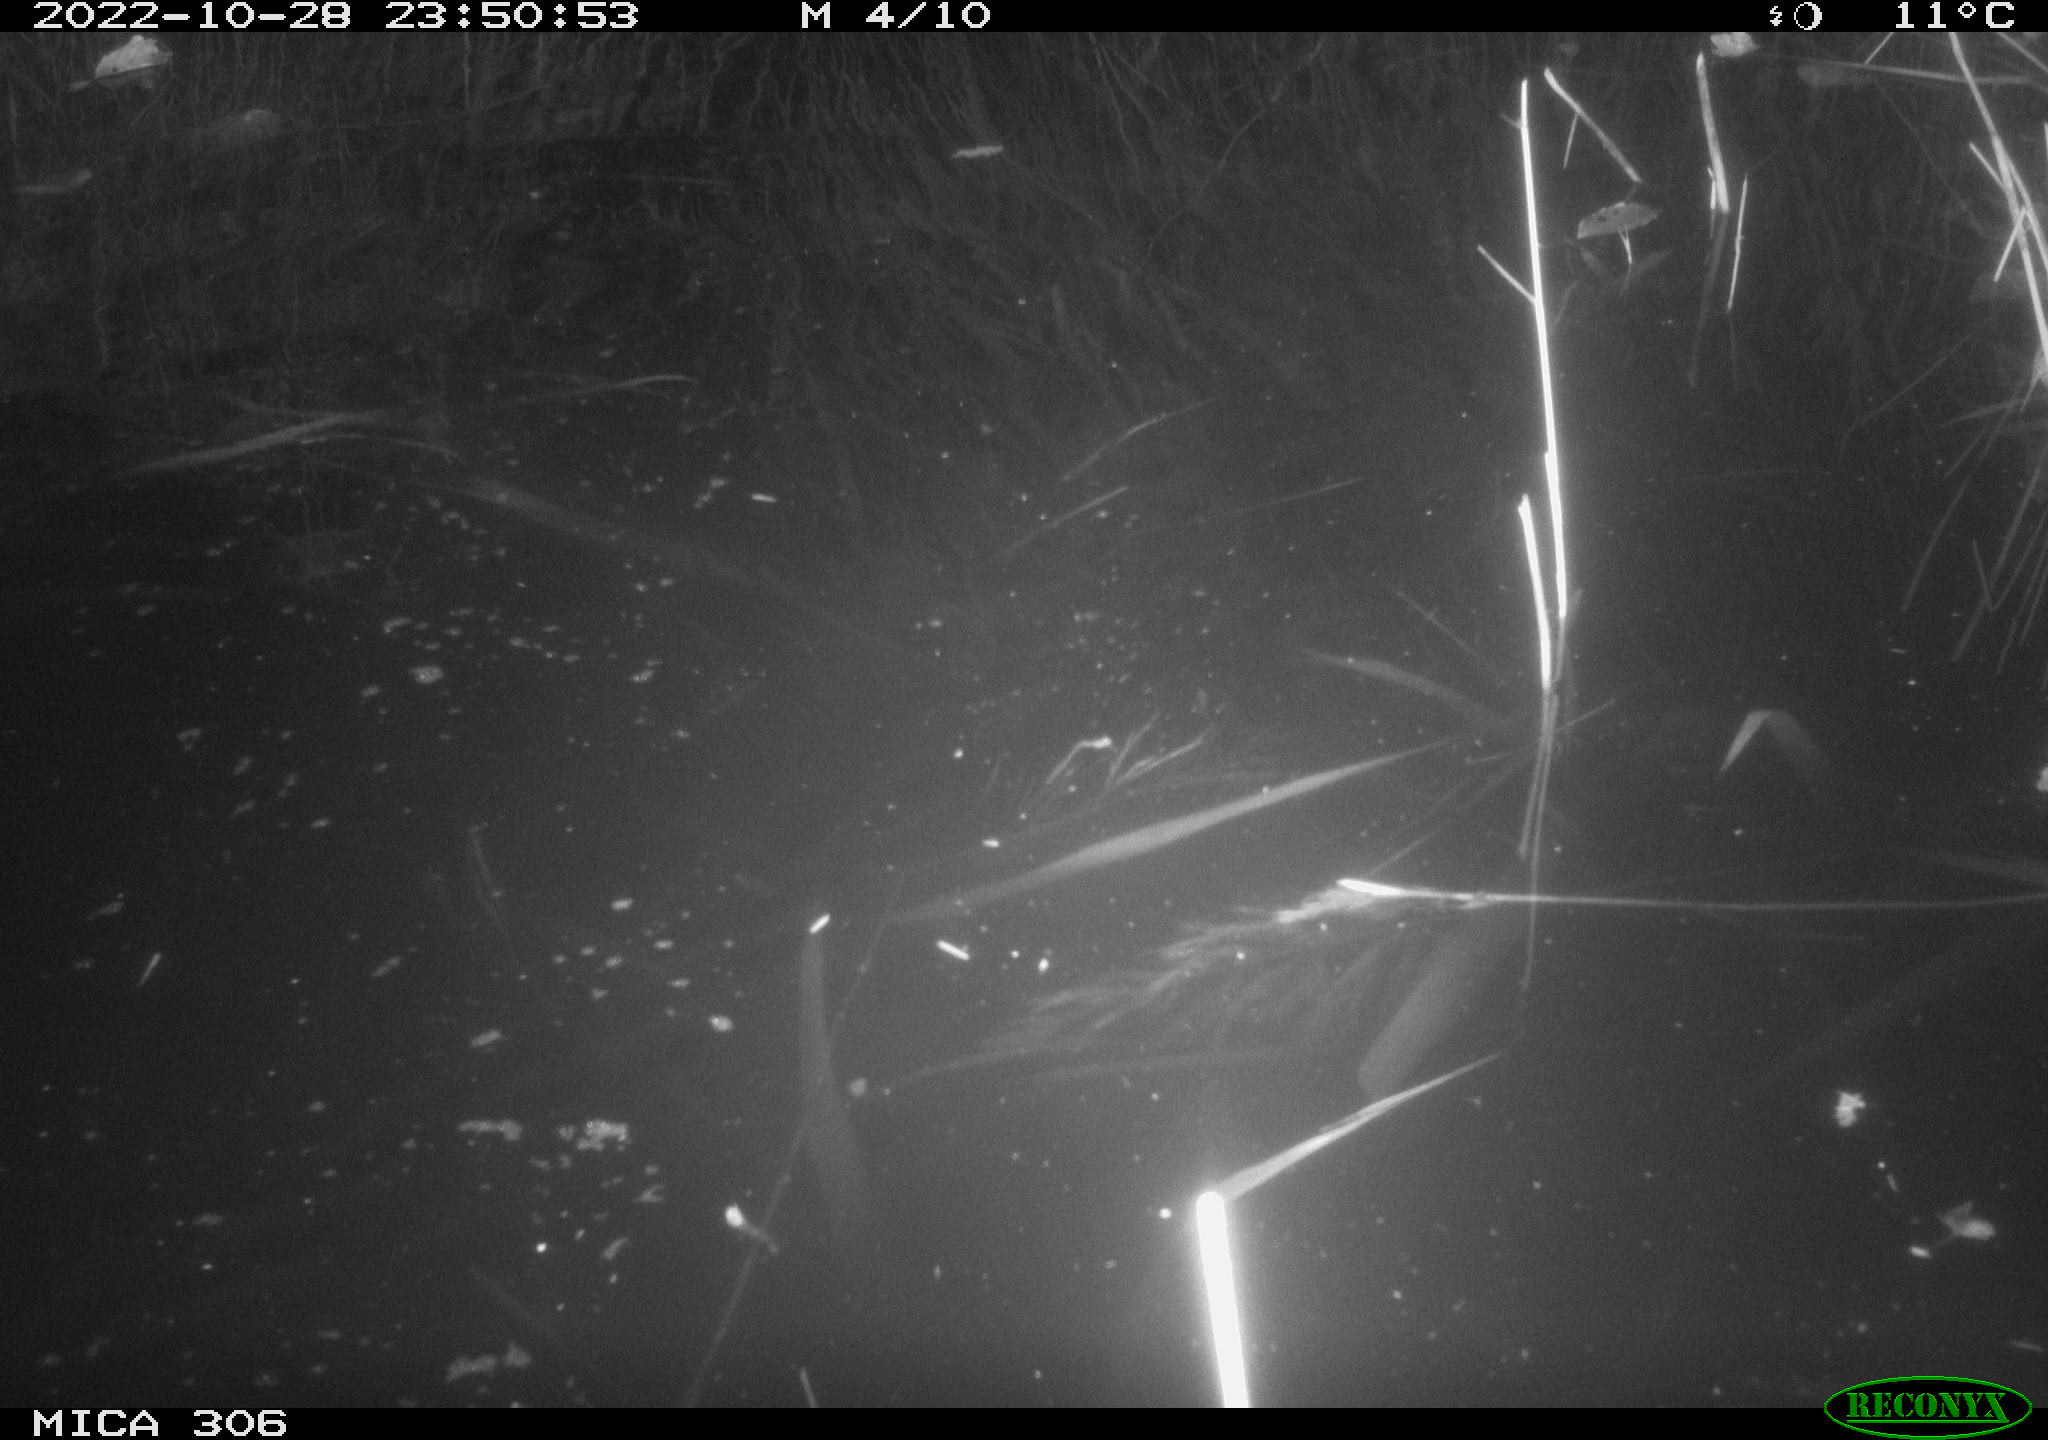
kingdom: Animalia
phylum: Chordata
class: Mammalia
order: Rodentia
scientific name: Rodentia
